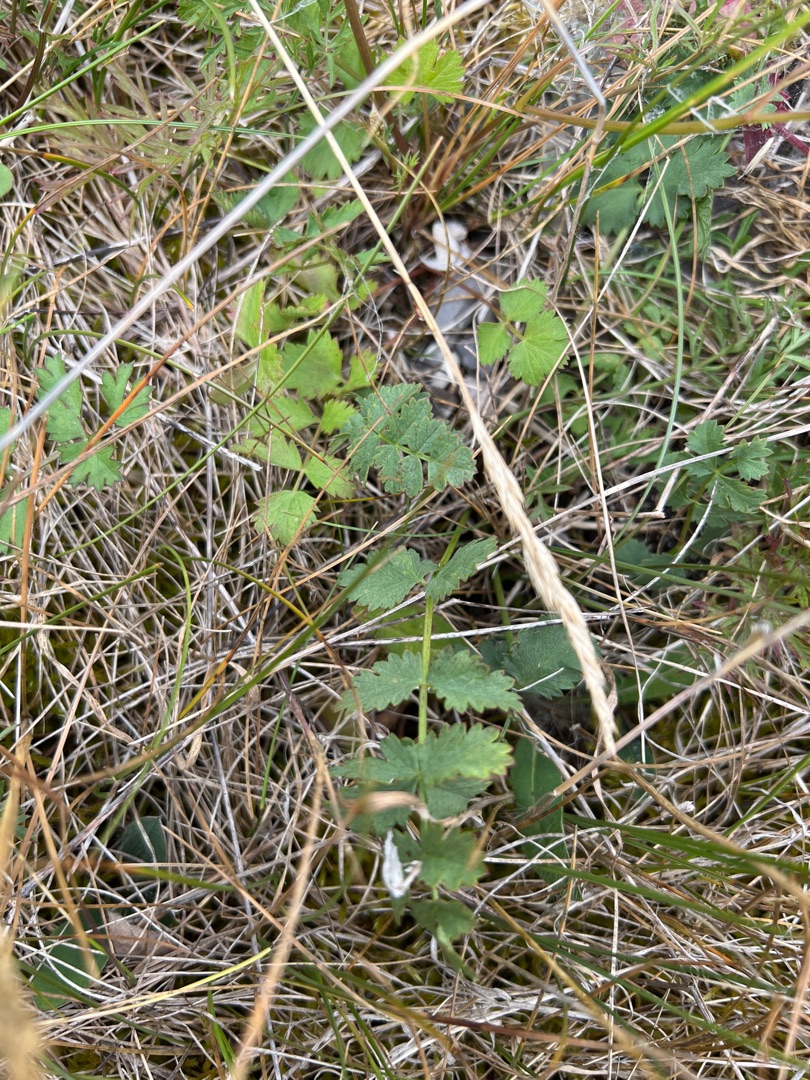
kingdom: Plantae
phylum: Tracheophyta
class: Magnoliopsida
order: Apiales
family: Apiaceae
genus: Pimpinella
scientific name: Pimpinella saxifraga
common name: Almindelig pimpinelle
